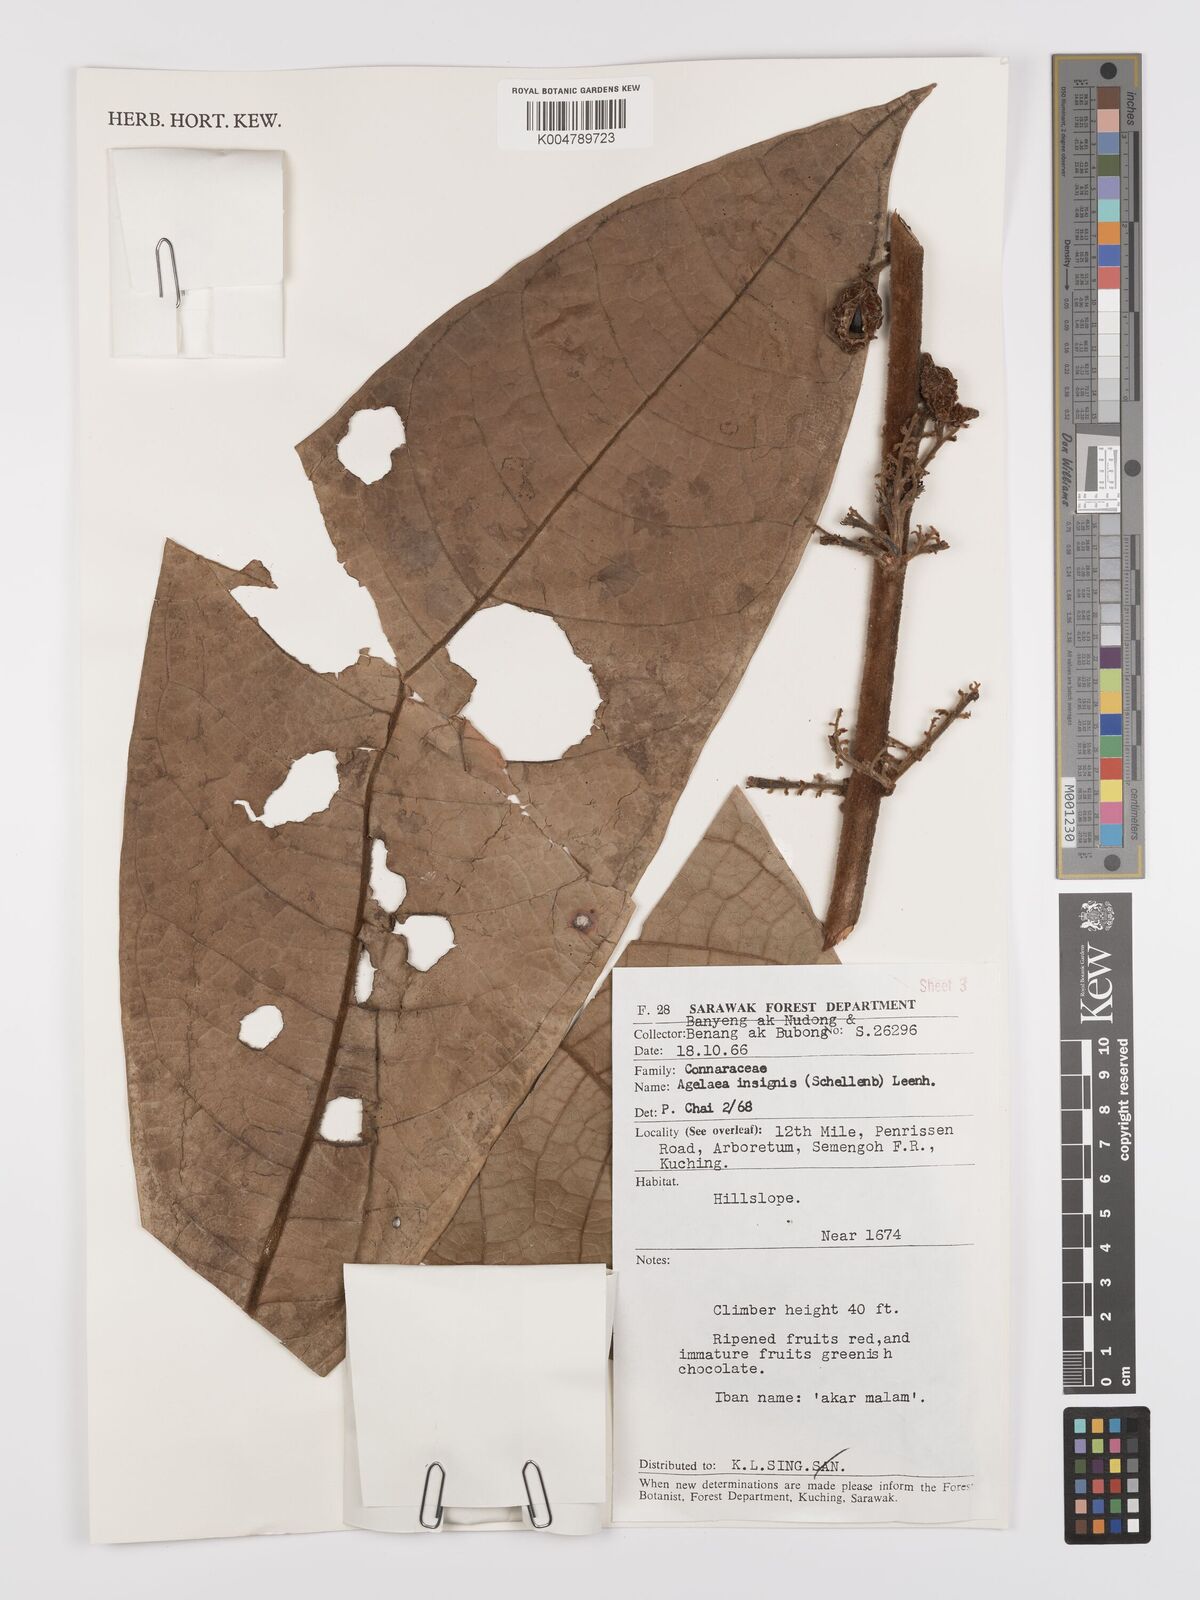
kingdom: Plantae
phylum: Tracheophyta
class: Magnoliopsida
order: Oxalidales
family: Connaraceae
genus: Agelaea
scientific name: Agelaea insignis
